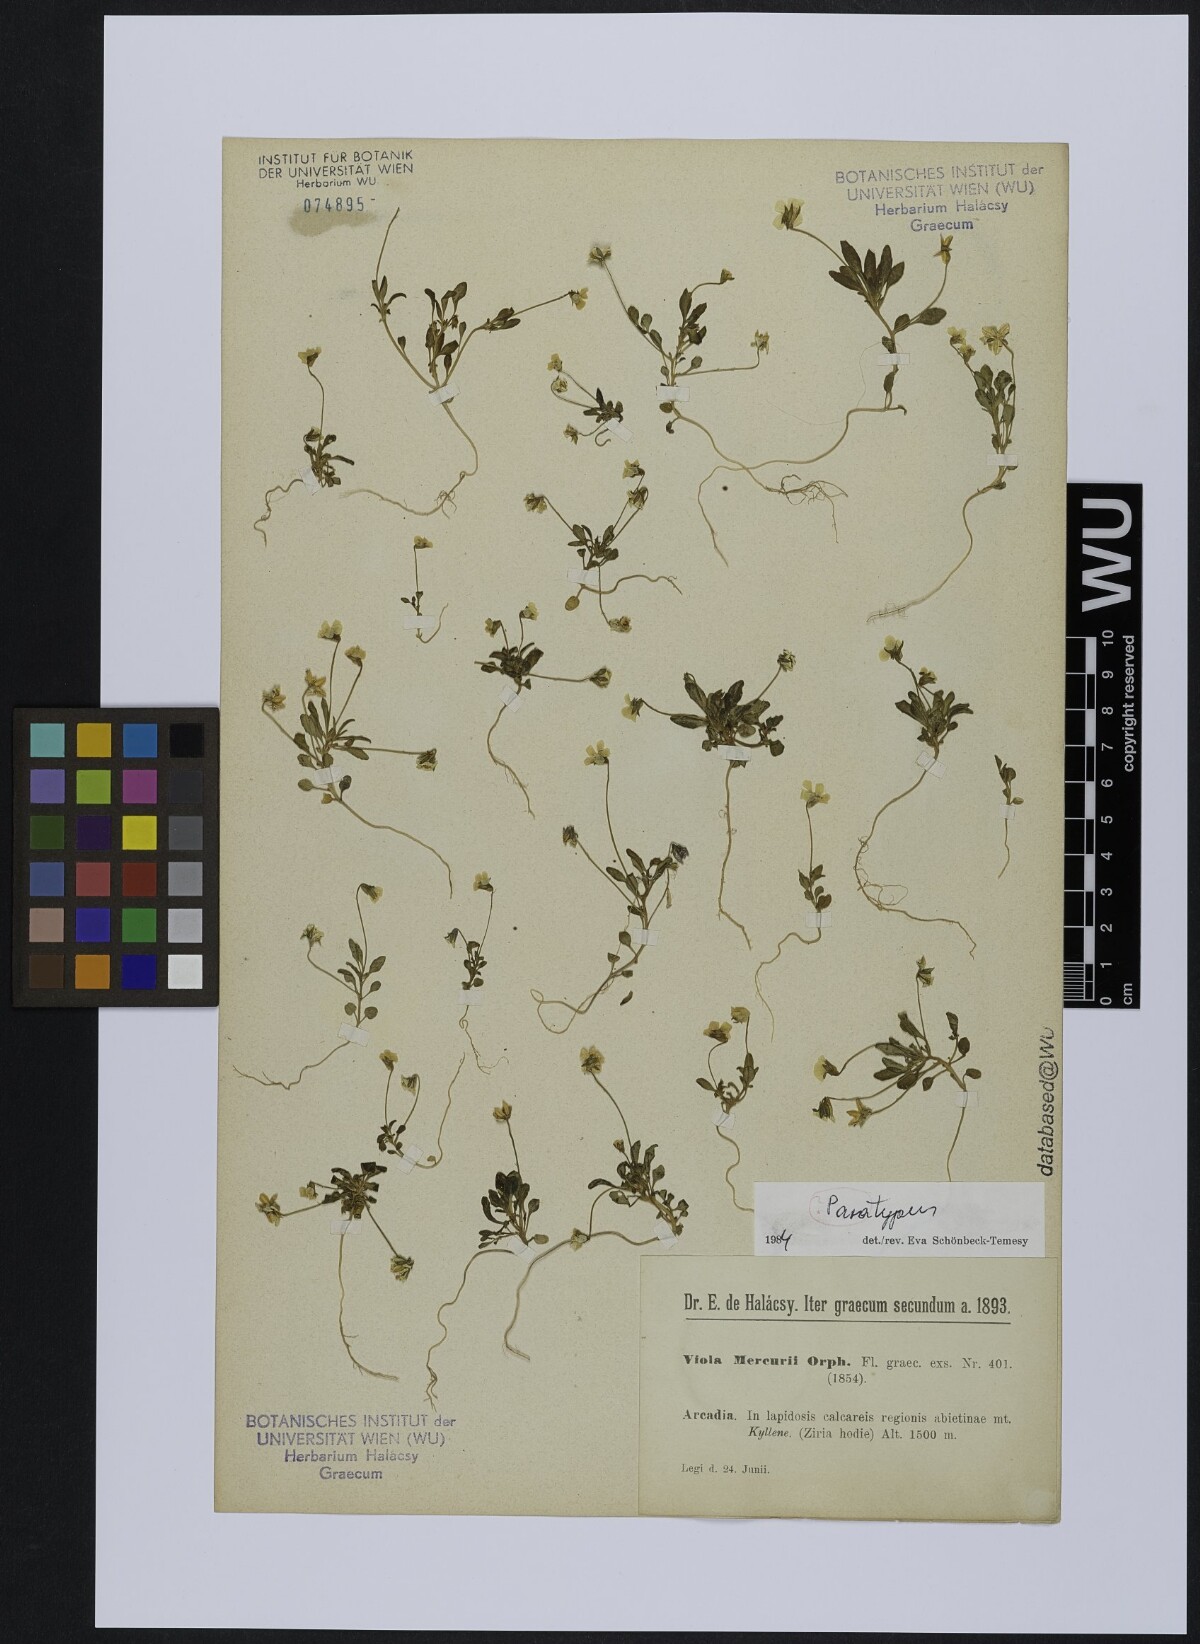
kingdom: Plantae
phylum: Tracheophyta
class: Magnoliopsida
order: Malpighiales
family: Violaceae
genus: Viola
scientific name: Viola mercurii
